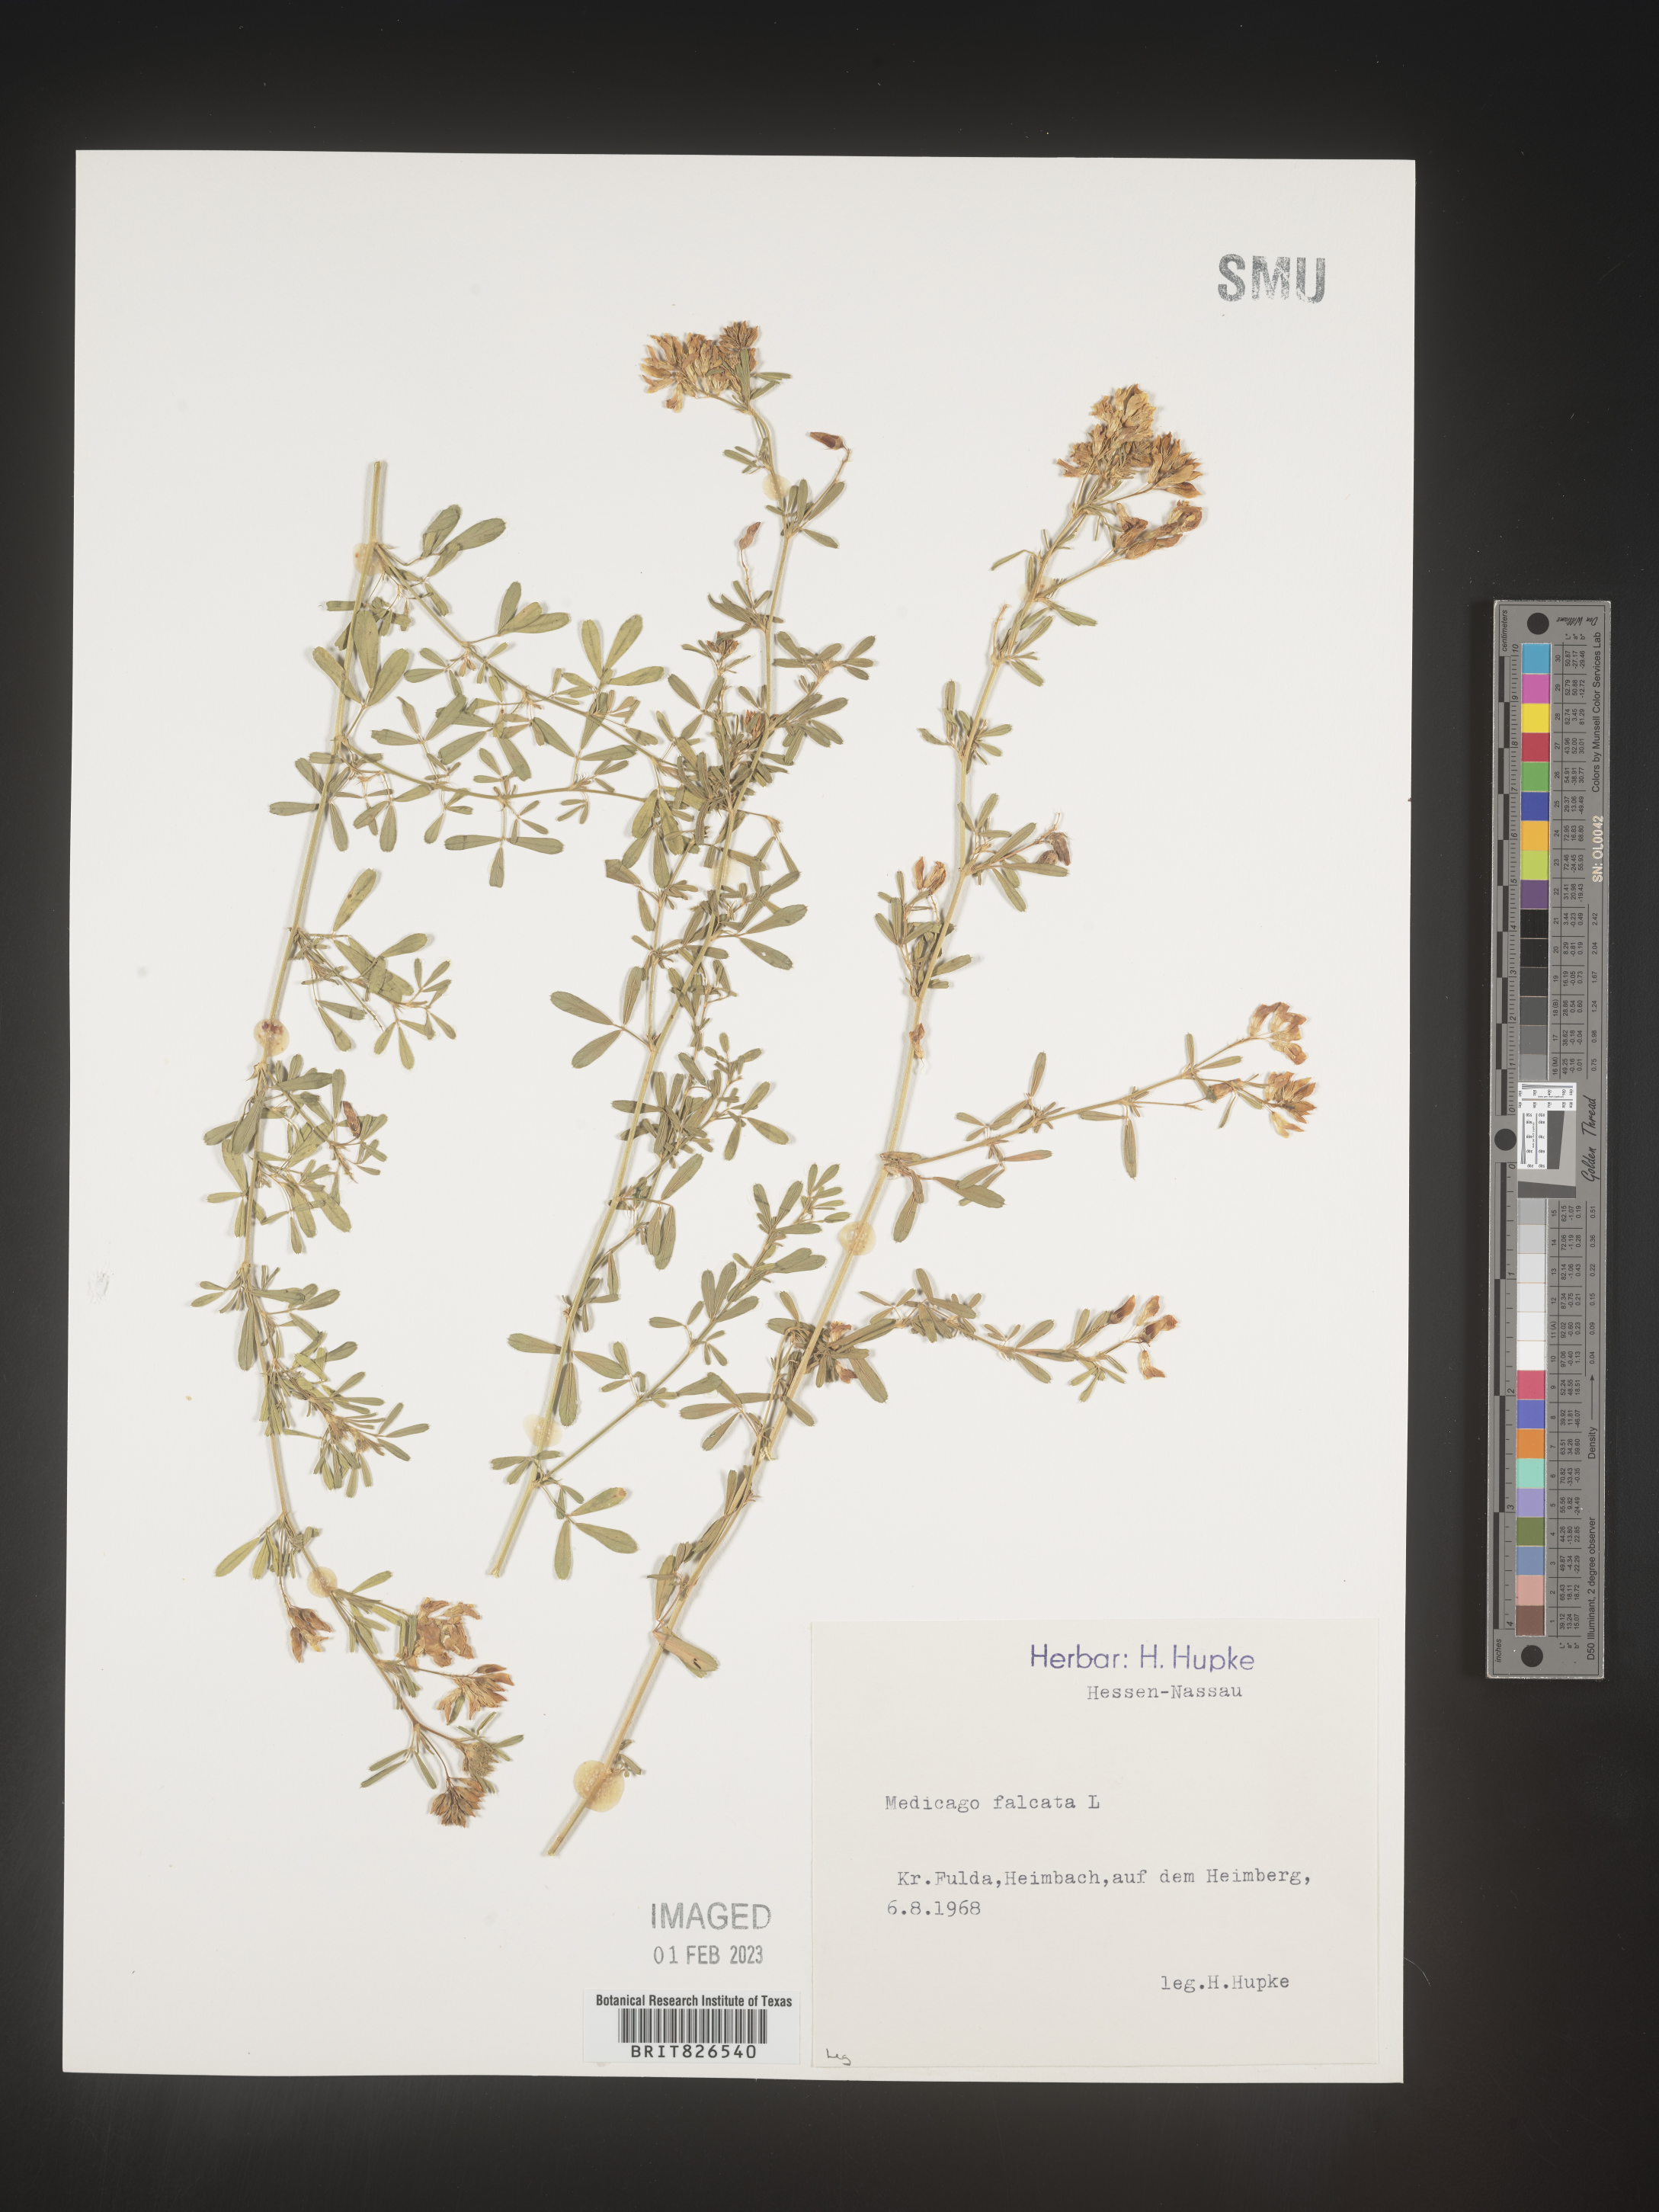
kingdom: Plantae
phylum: Tracheophyta
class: Magnoliopsida
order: Fabales
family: Fabaceae
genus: Medicago
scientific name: Medicago
